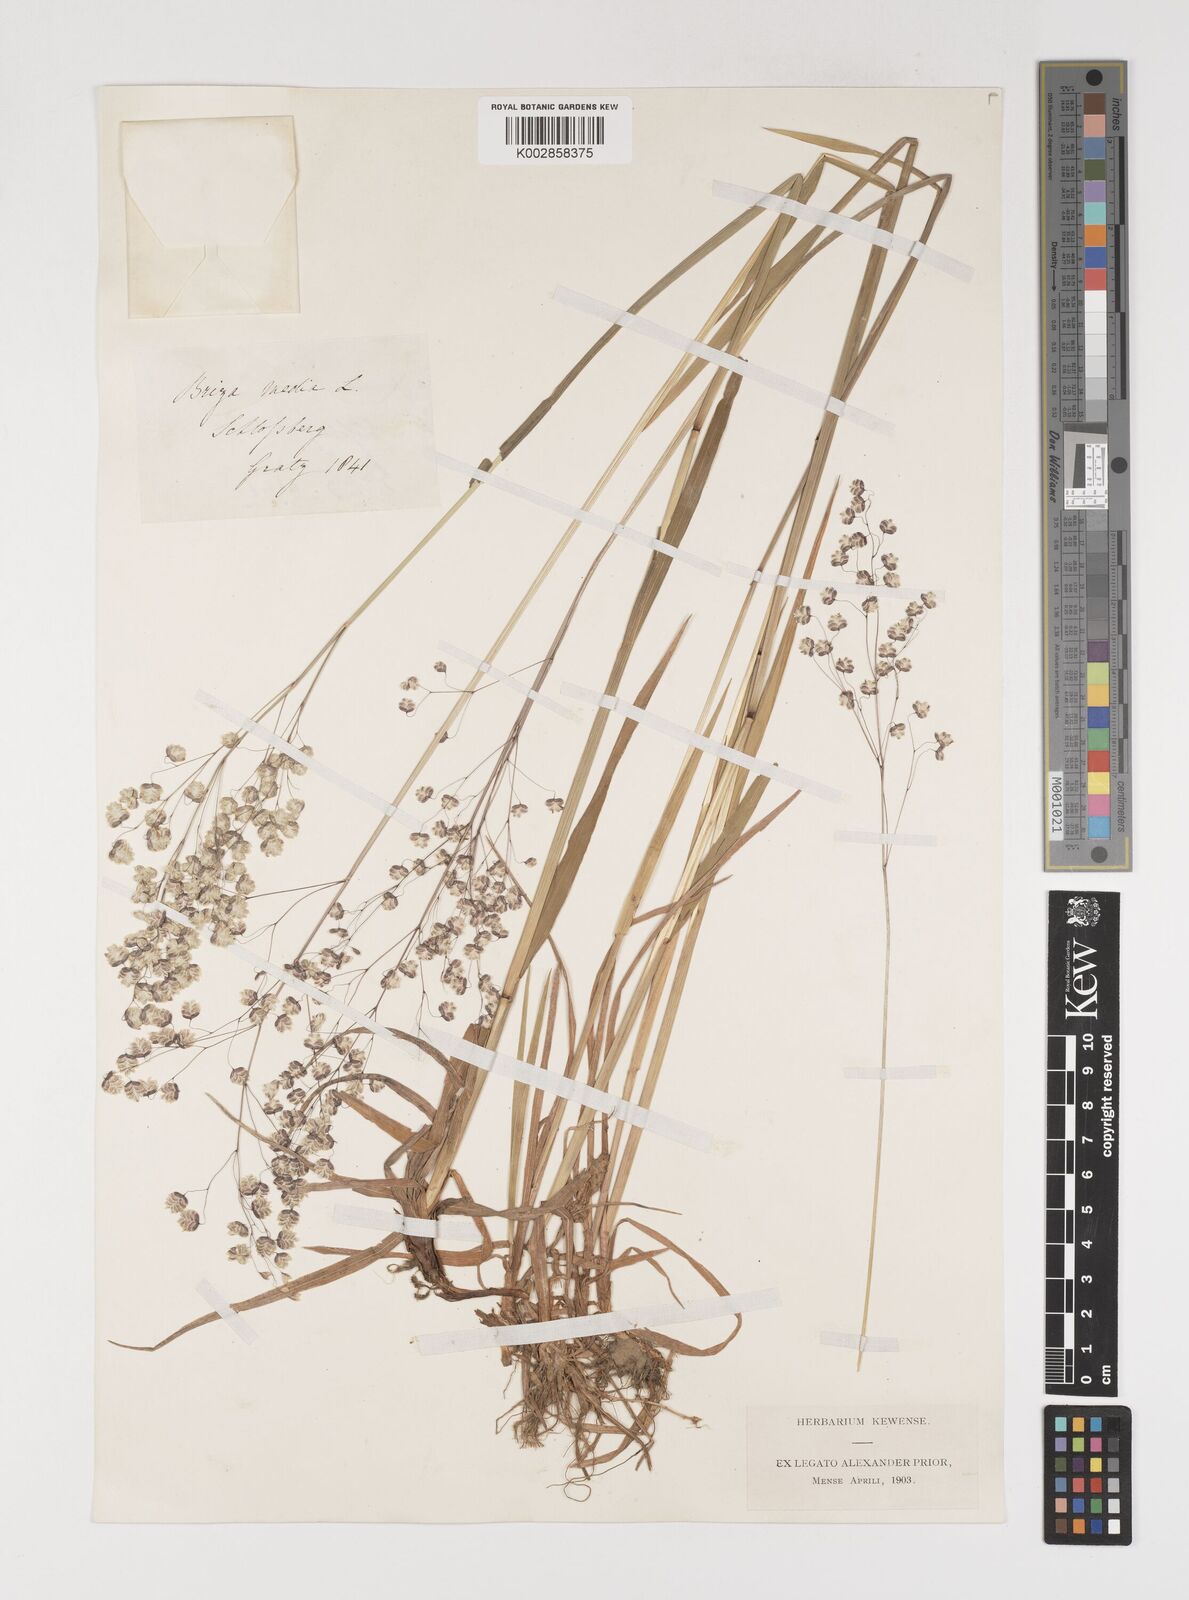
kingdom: Plantae
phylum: Tracheophyta
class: Liliopsida
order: Poales
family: Poaceae
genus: Briza
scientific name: Briza media
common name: Quaking grass
